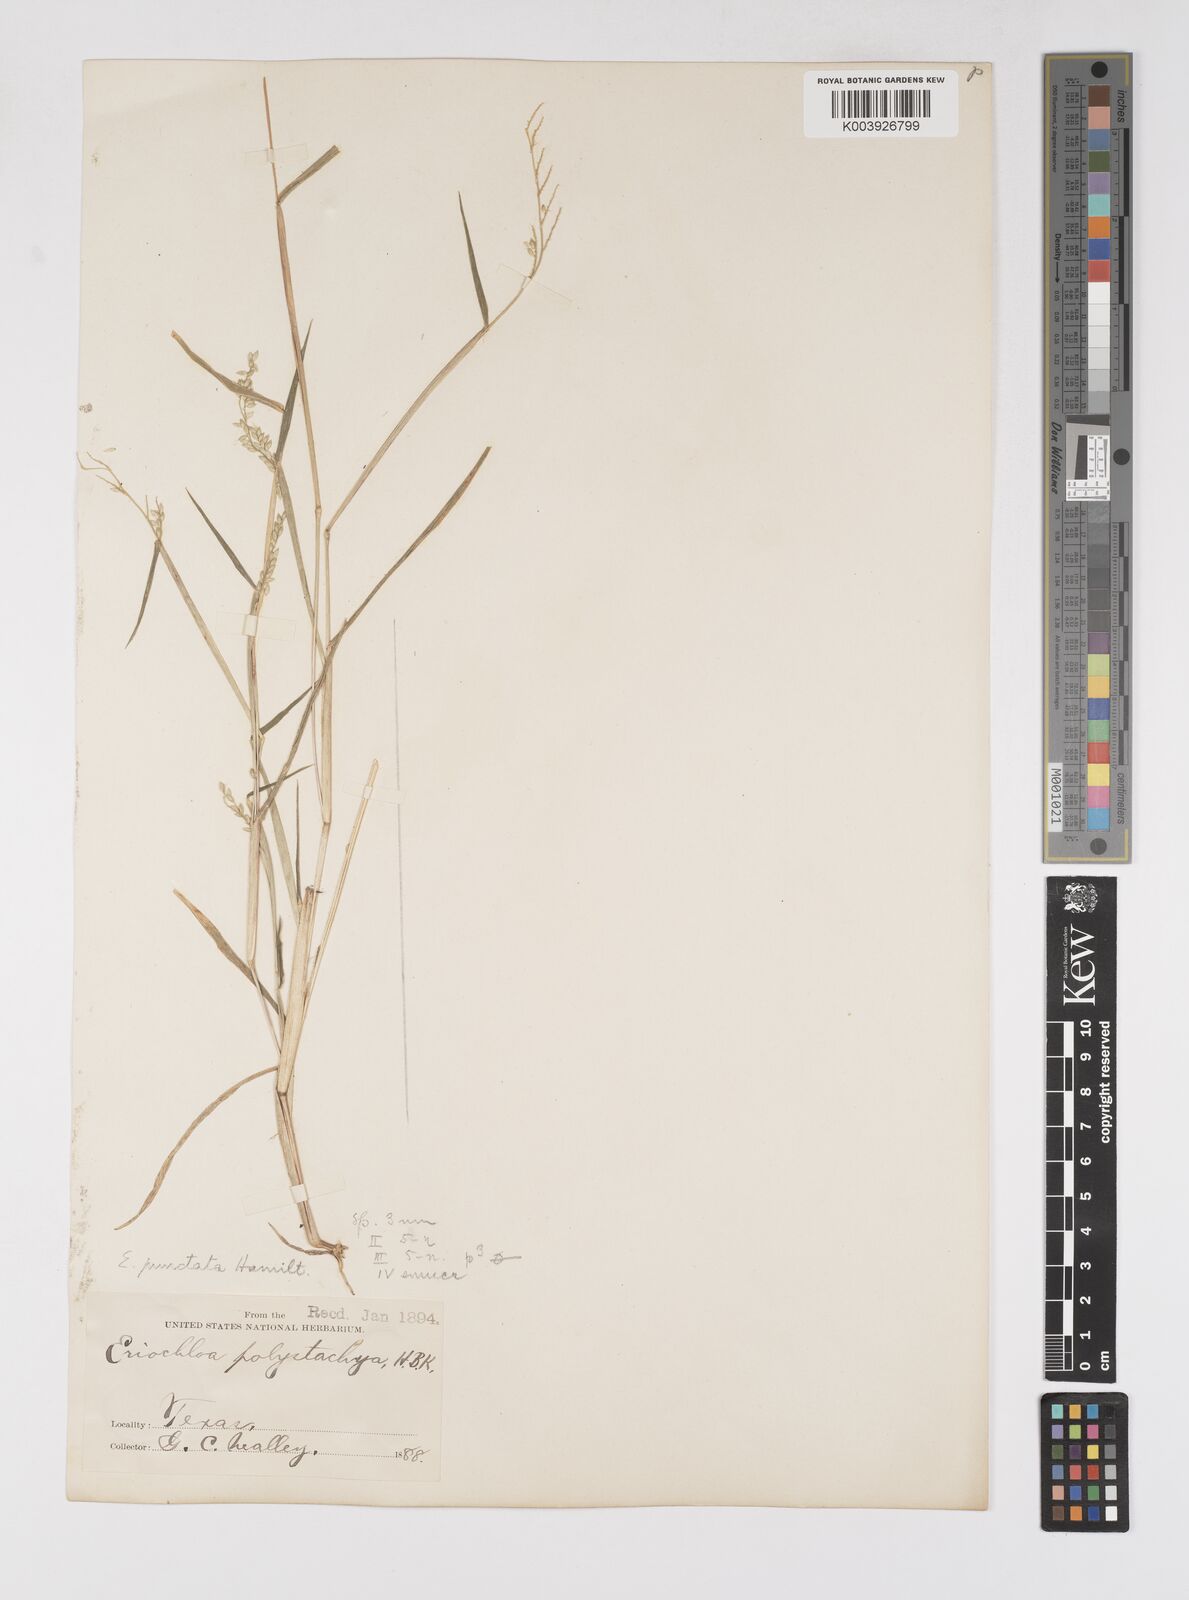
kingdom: Plantae
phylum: Tracheophyta
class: Liliopsida
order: Poales
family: Poaceae
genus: Eriochloa
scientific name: Eriochloa acuminata
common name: Southwestern cup grass
